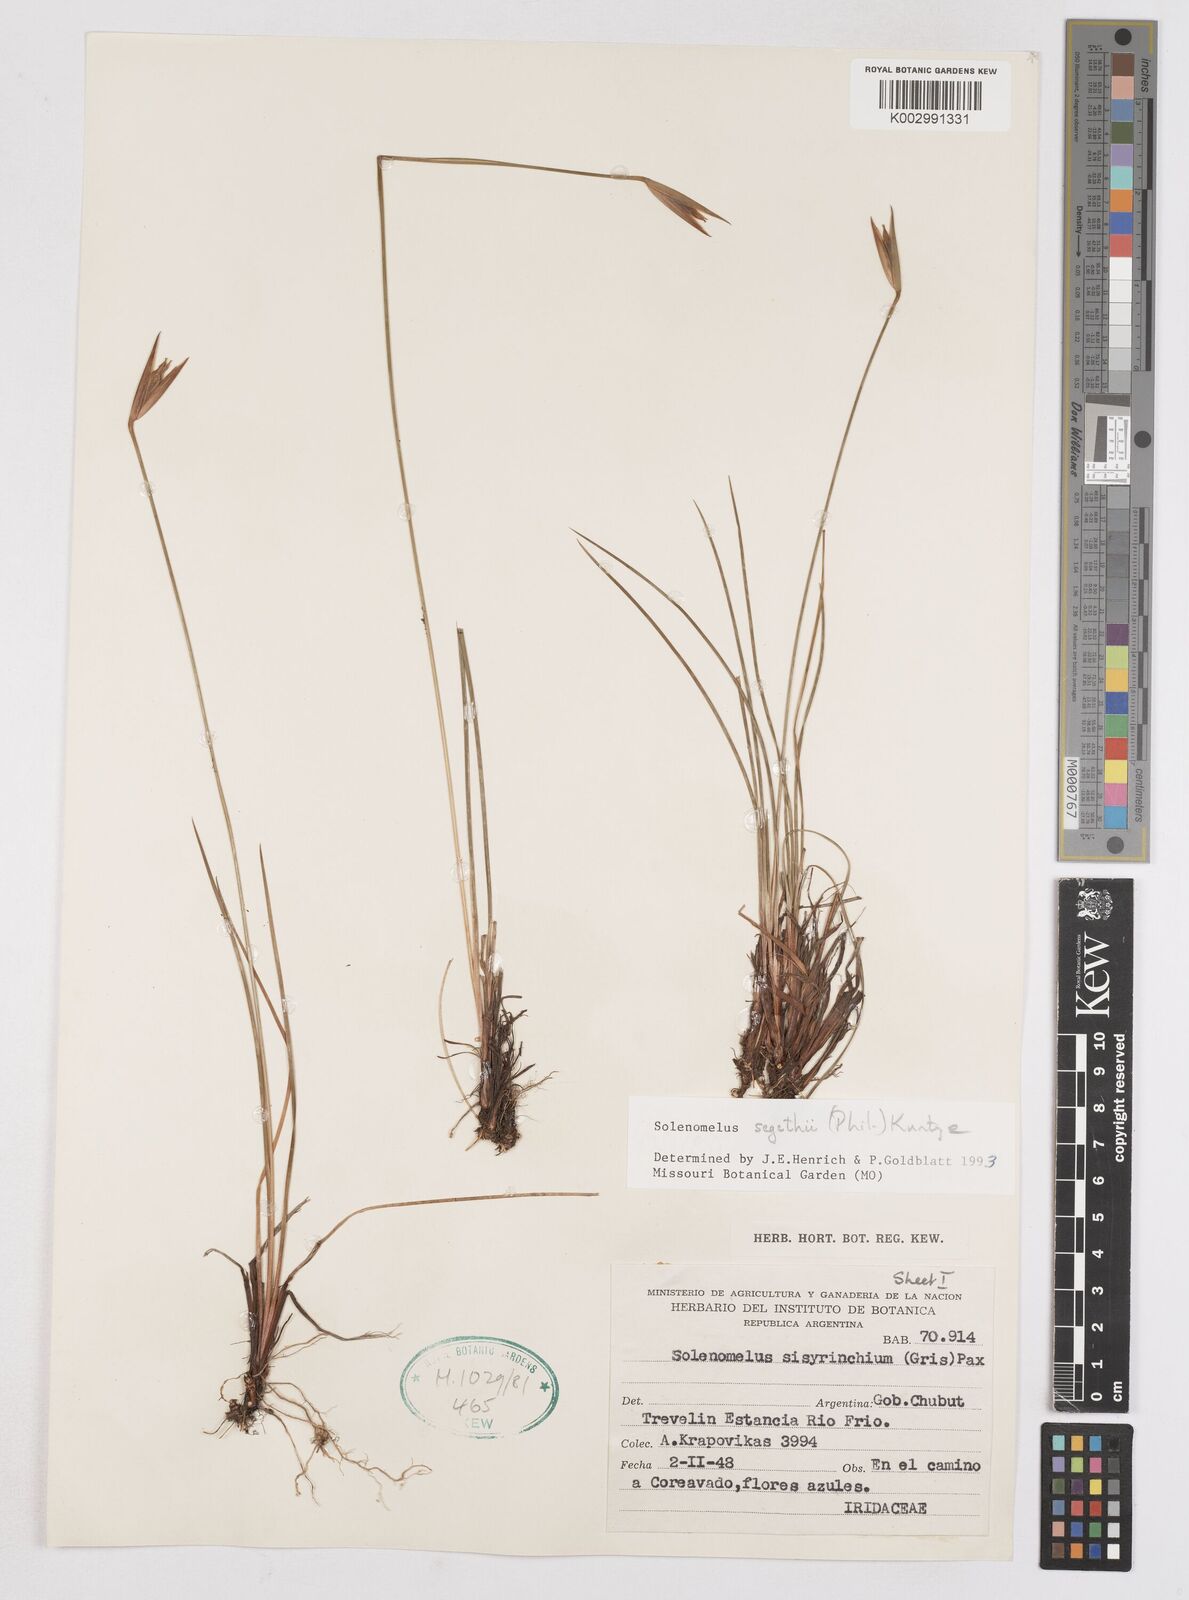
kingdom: Plantae
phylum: Tracheophyta
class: Liliopsida
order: Asparagales
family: Iridaceae
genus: Solenomelus
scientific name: Solenomelus segethi
